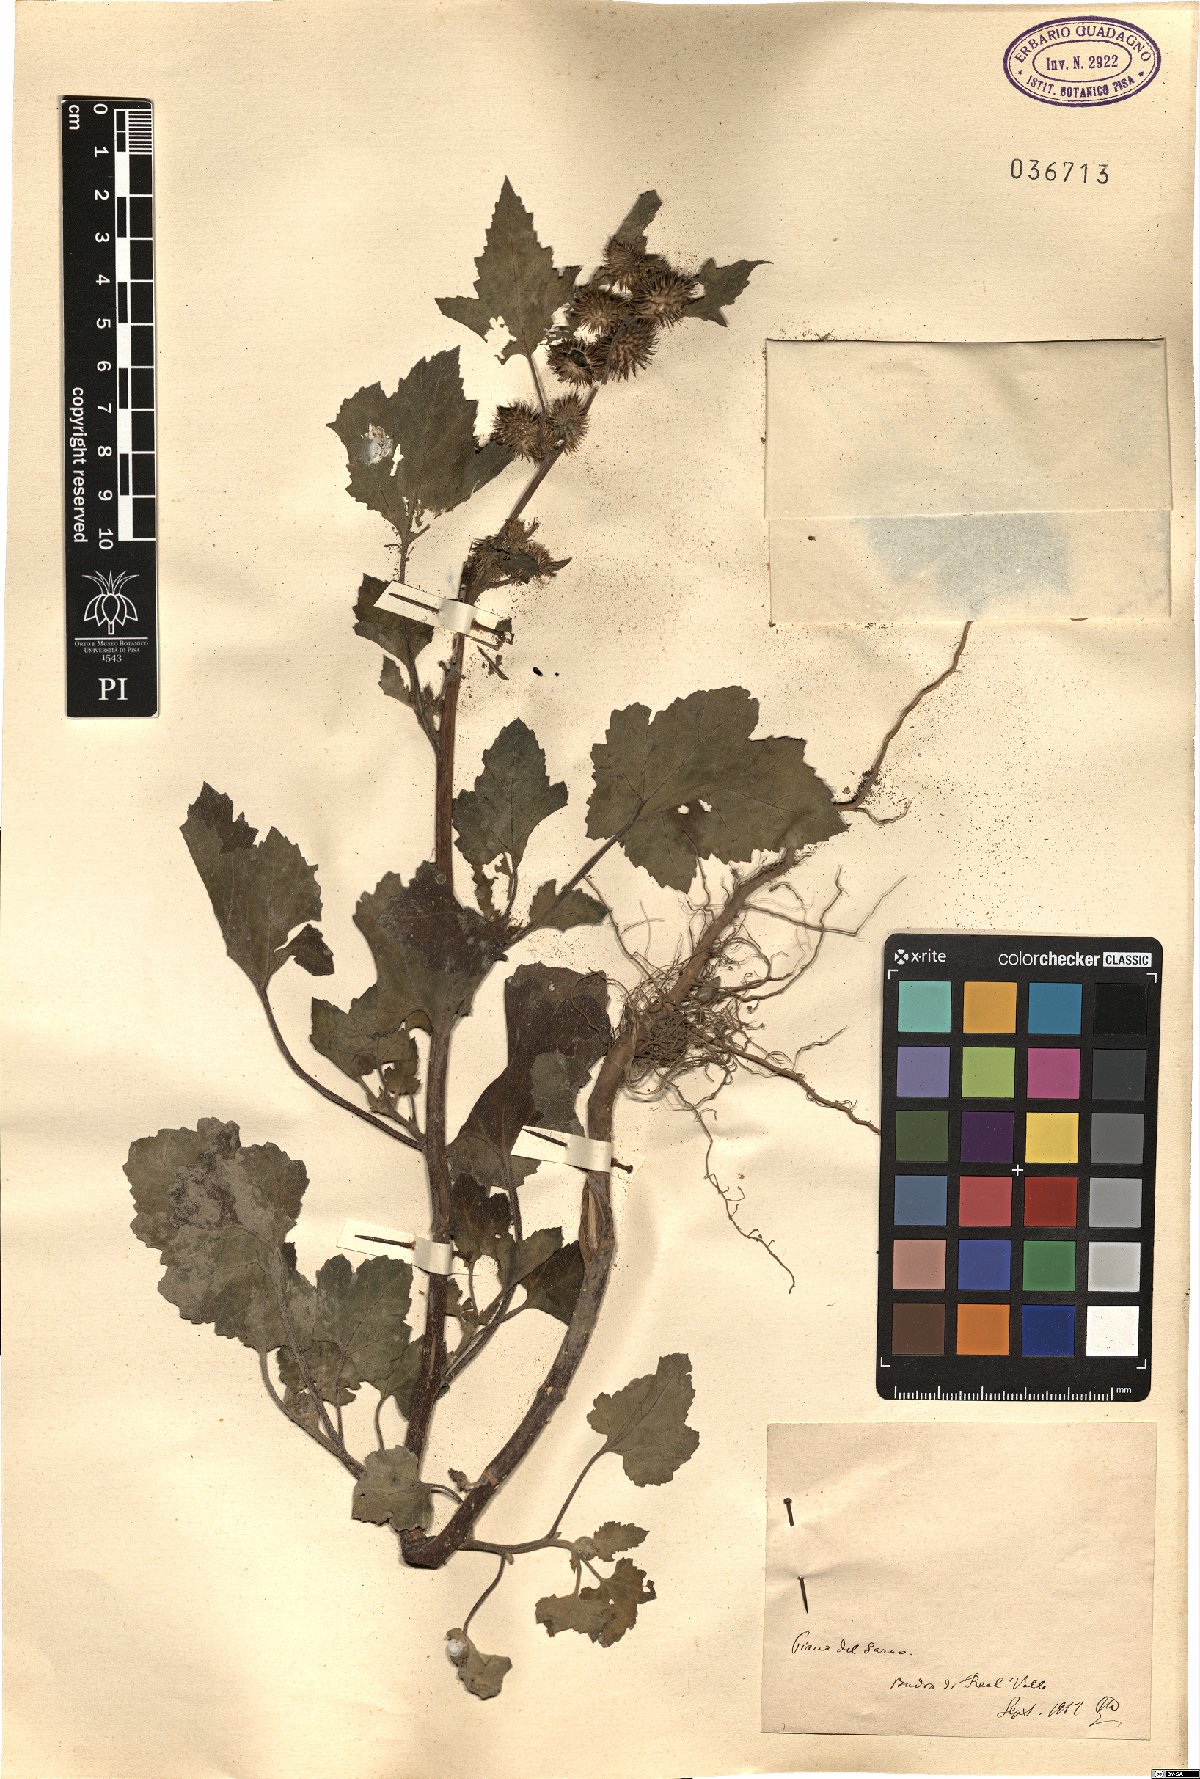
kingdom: Plantae
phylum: Tracheophyta
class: Magnoliopsida
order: Asterales
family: Asteraceae
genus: Xanthium
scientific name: Xanthium
